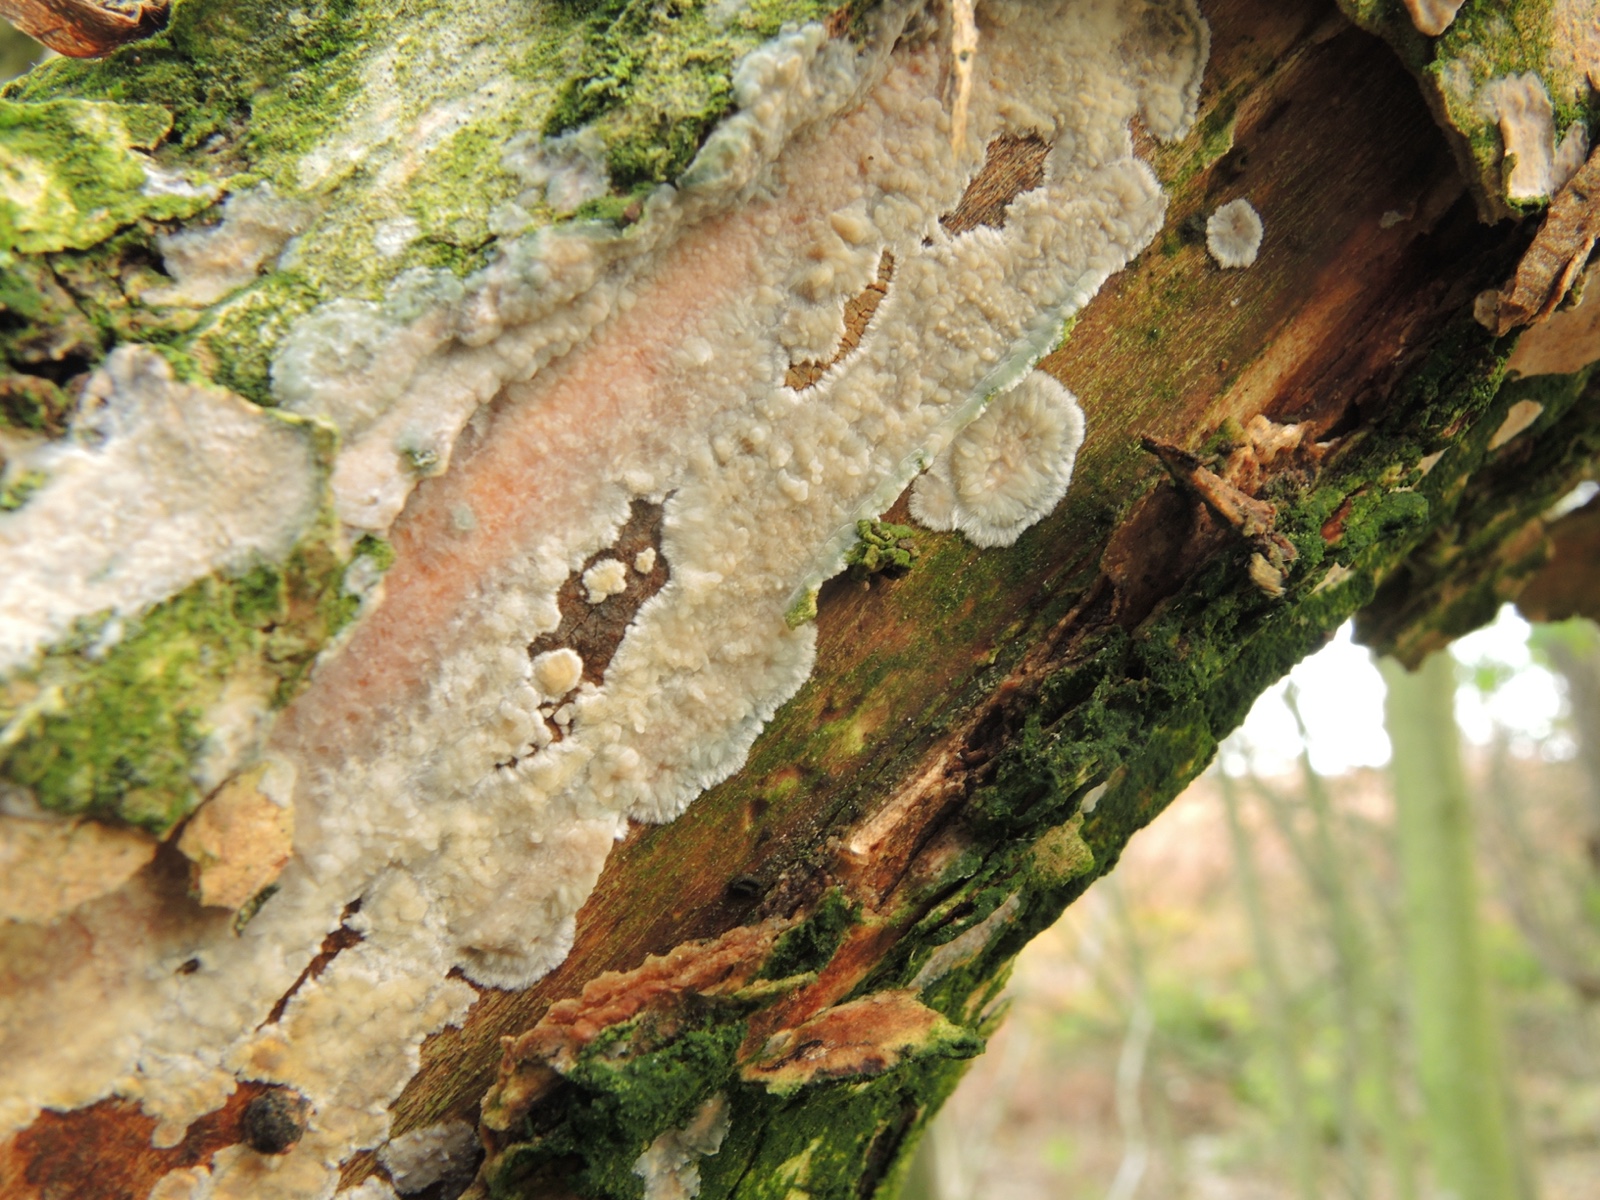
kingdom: Fungi
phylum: Basidiomycota
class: Agaricomycetes
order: Agaricales
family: Radulomycetaceae
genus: Radulomyces
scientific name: Radulomyces confluens
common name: glat naftalinskind
